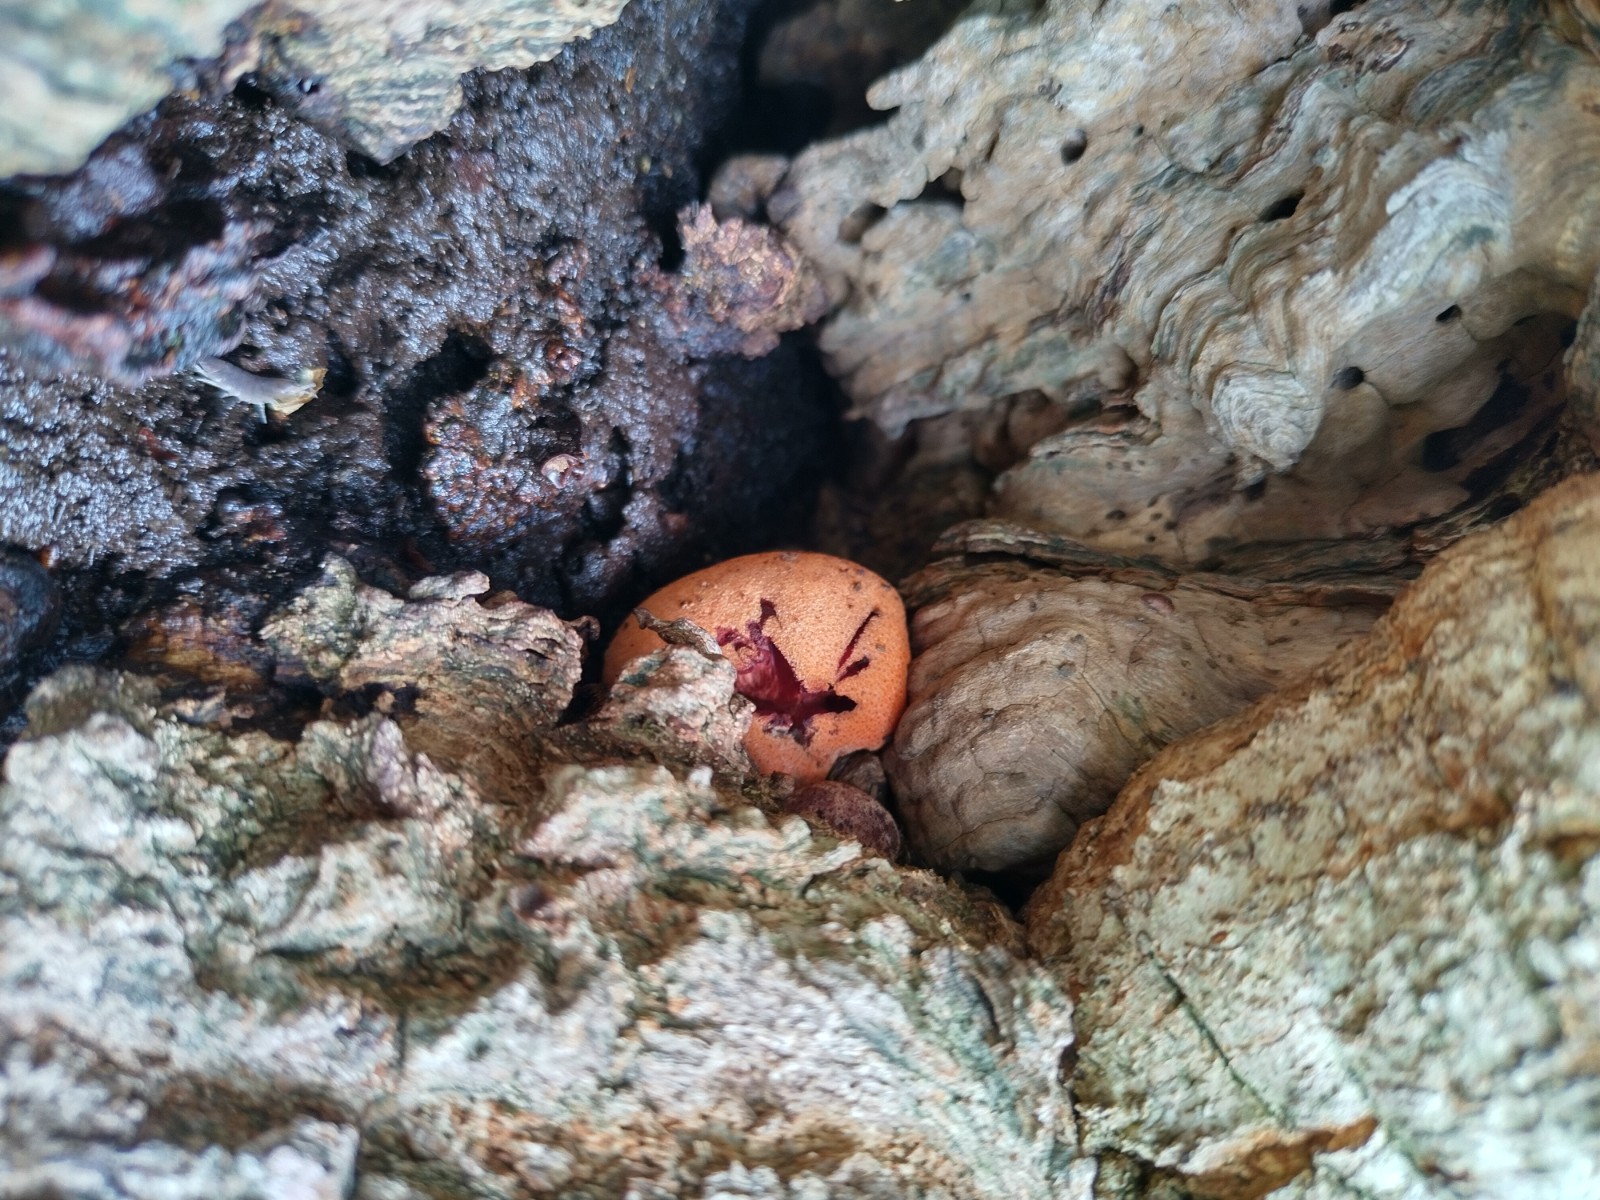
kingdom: Fungi
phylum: Basidiomycota
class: Agaricomycetes
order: Agaricales
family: Fistulinaceae
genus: Fistulina
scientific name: Fistulina hepatica
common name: oksetunge
